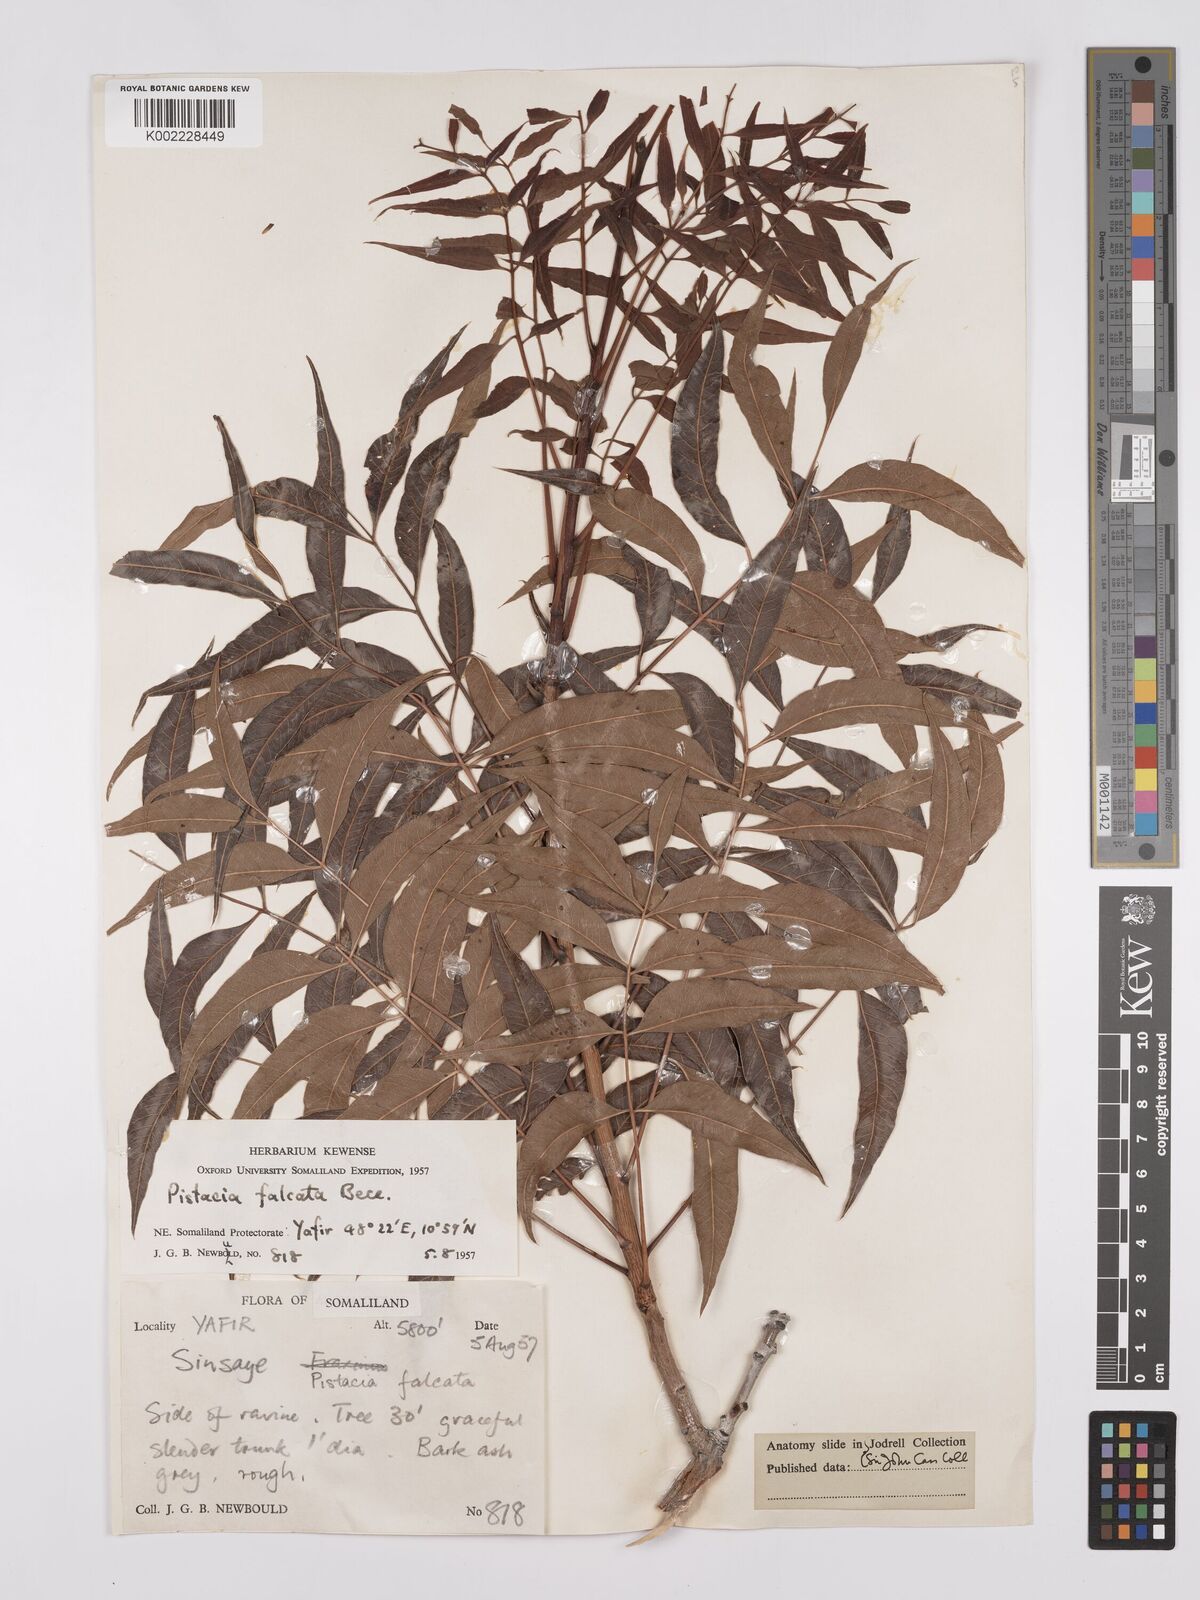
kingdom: Plantae
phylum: Tracheophyta
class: Magnoliopsida
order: Sapindales
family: Anacardiaceae
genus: Pistacia
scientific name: Pistacia falcata
